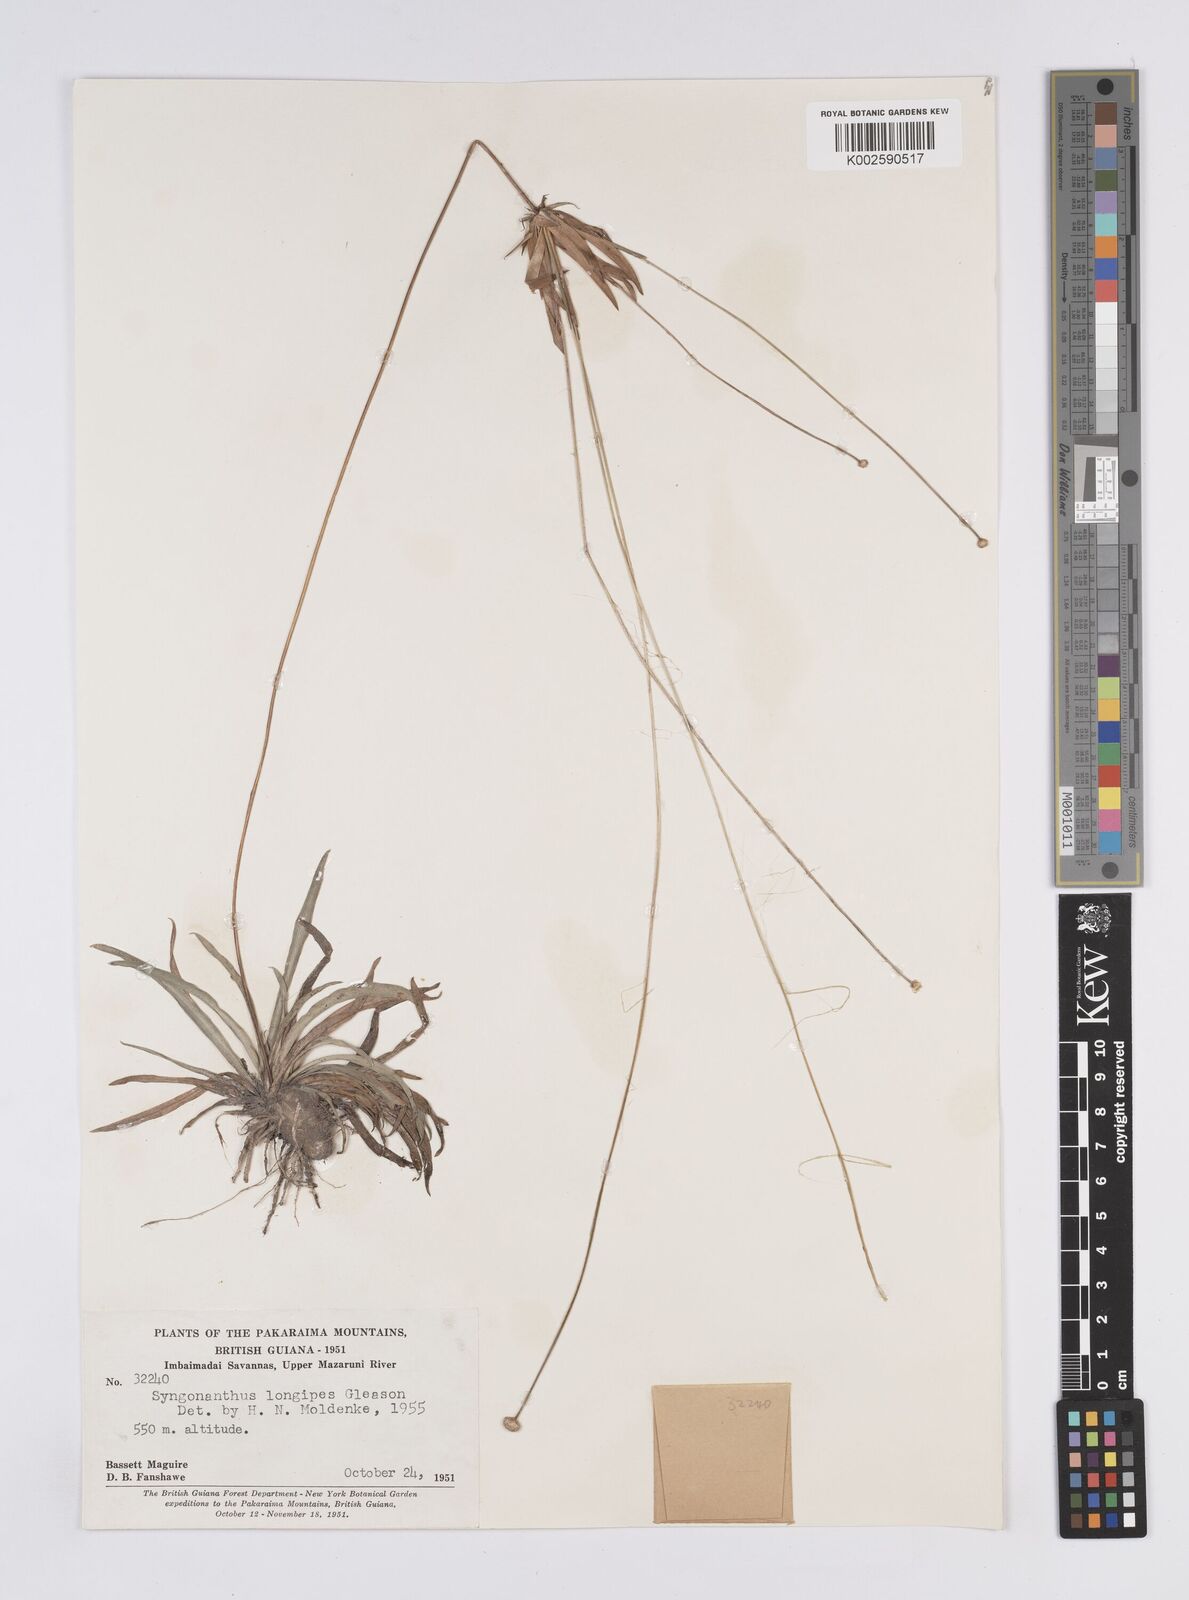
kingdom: Plantae
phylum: Tracheophyta
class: Liliopsida
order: Poales
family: Eriocaulaceae
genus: Syngonanthus
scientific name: Syngonanthus longipes
